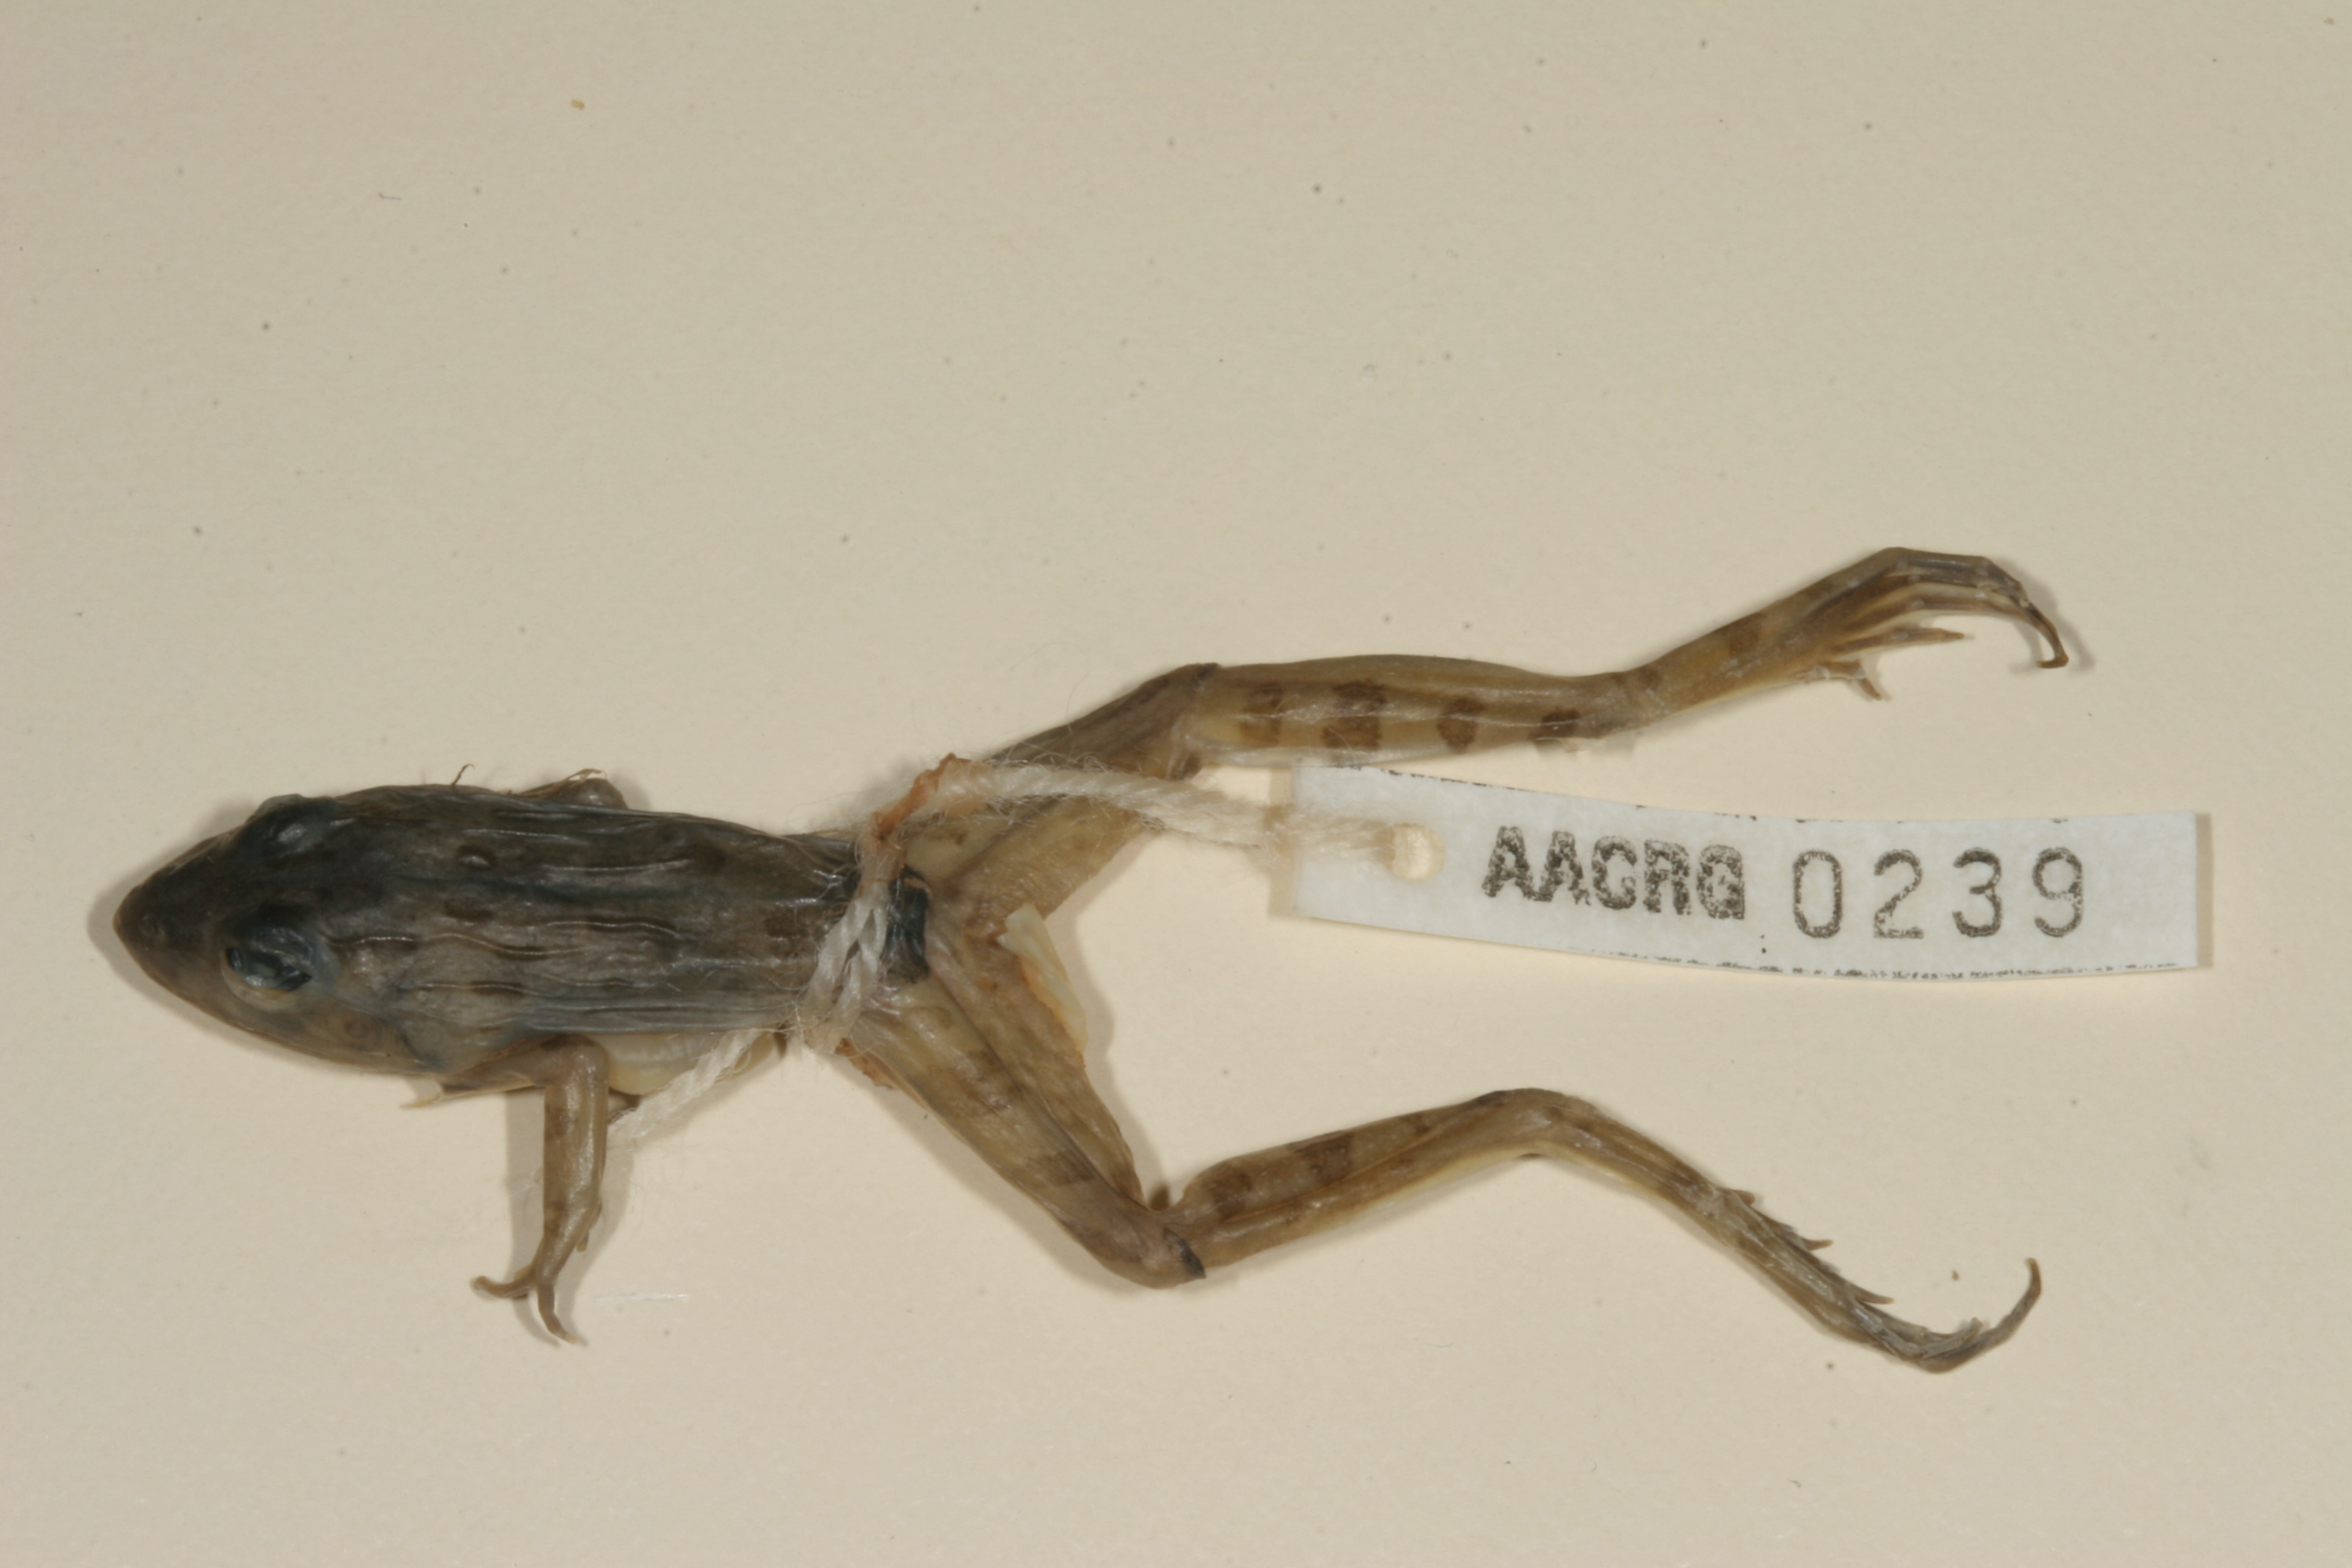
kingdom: Animalia
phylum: Chordata
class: Amphibia
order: Anura
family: Pyxicephalidae
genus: Amietia
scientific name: Amietia angolensis
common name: Dusky-throated frog
